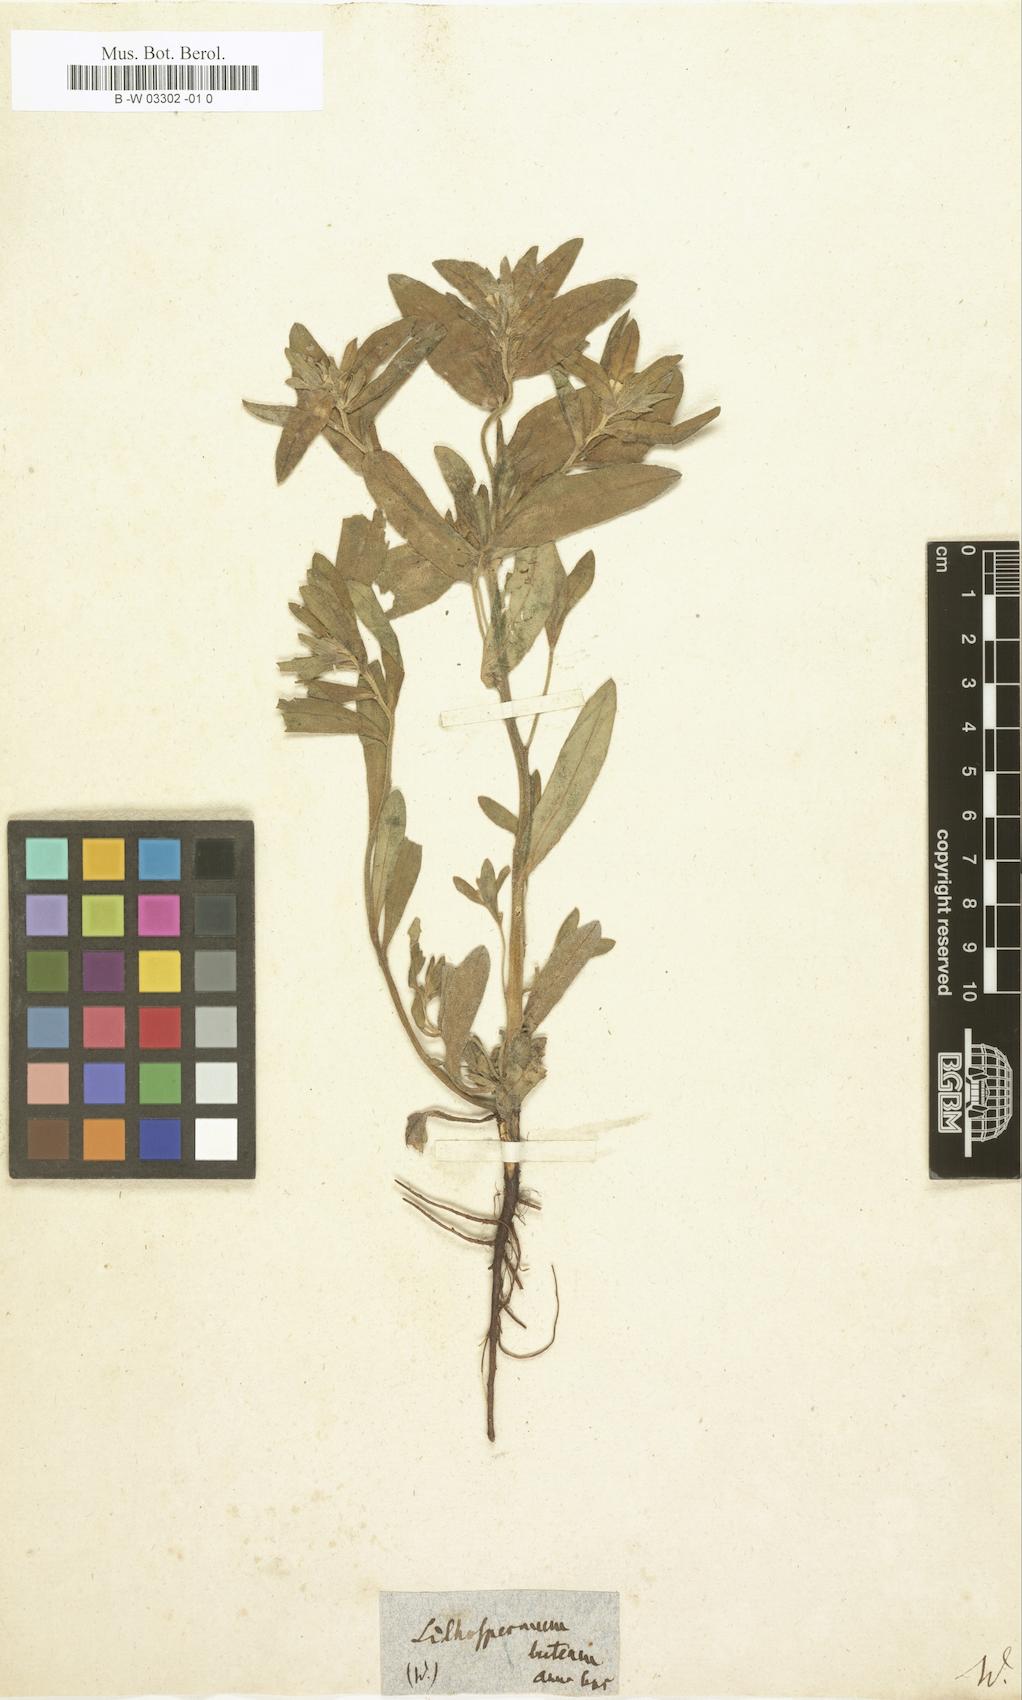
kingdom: Plantae
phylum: Tracheophyta
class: Magnoliopsida
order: Boraginales
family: Boraginaceae
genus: Lithospermum
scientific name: Lithospermum latifolium
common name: American gromwell
